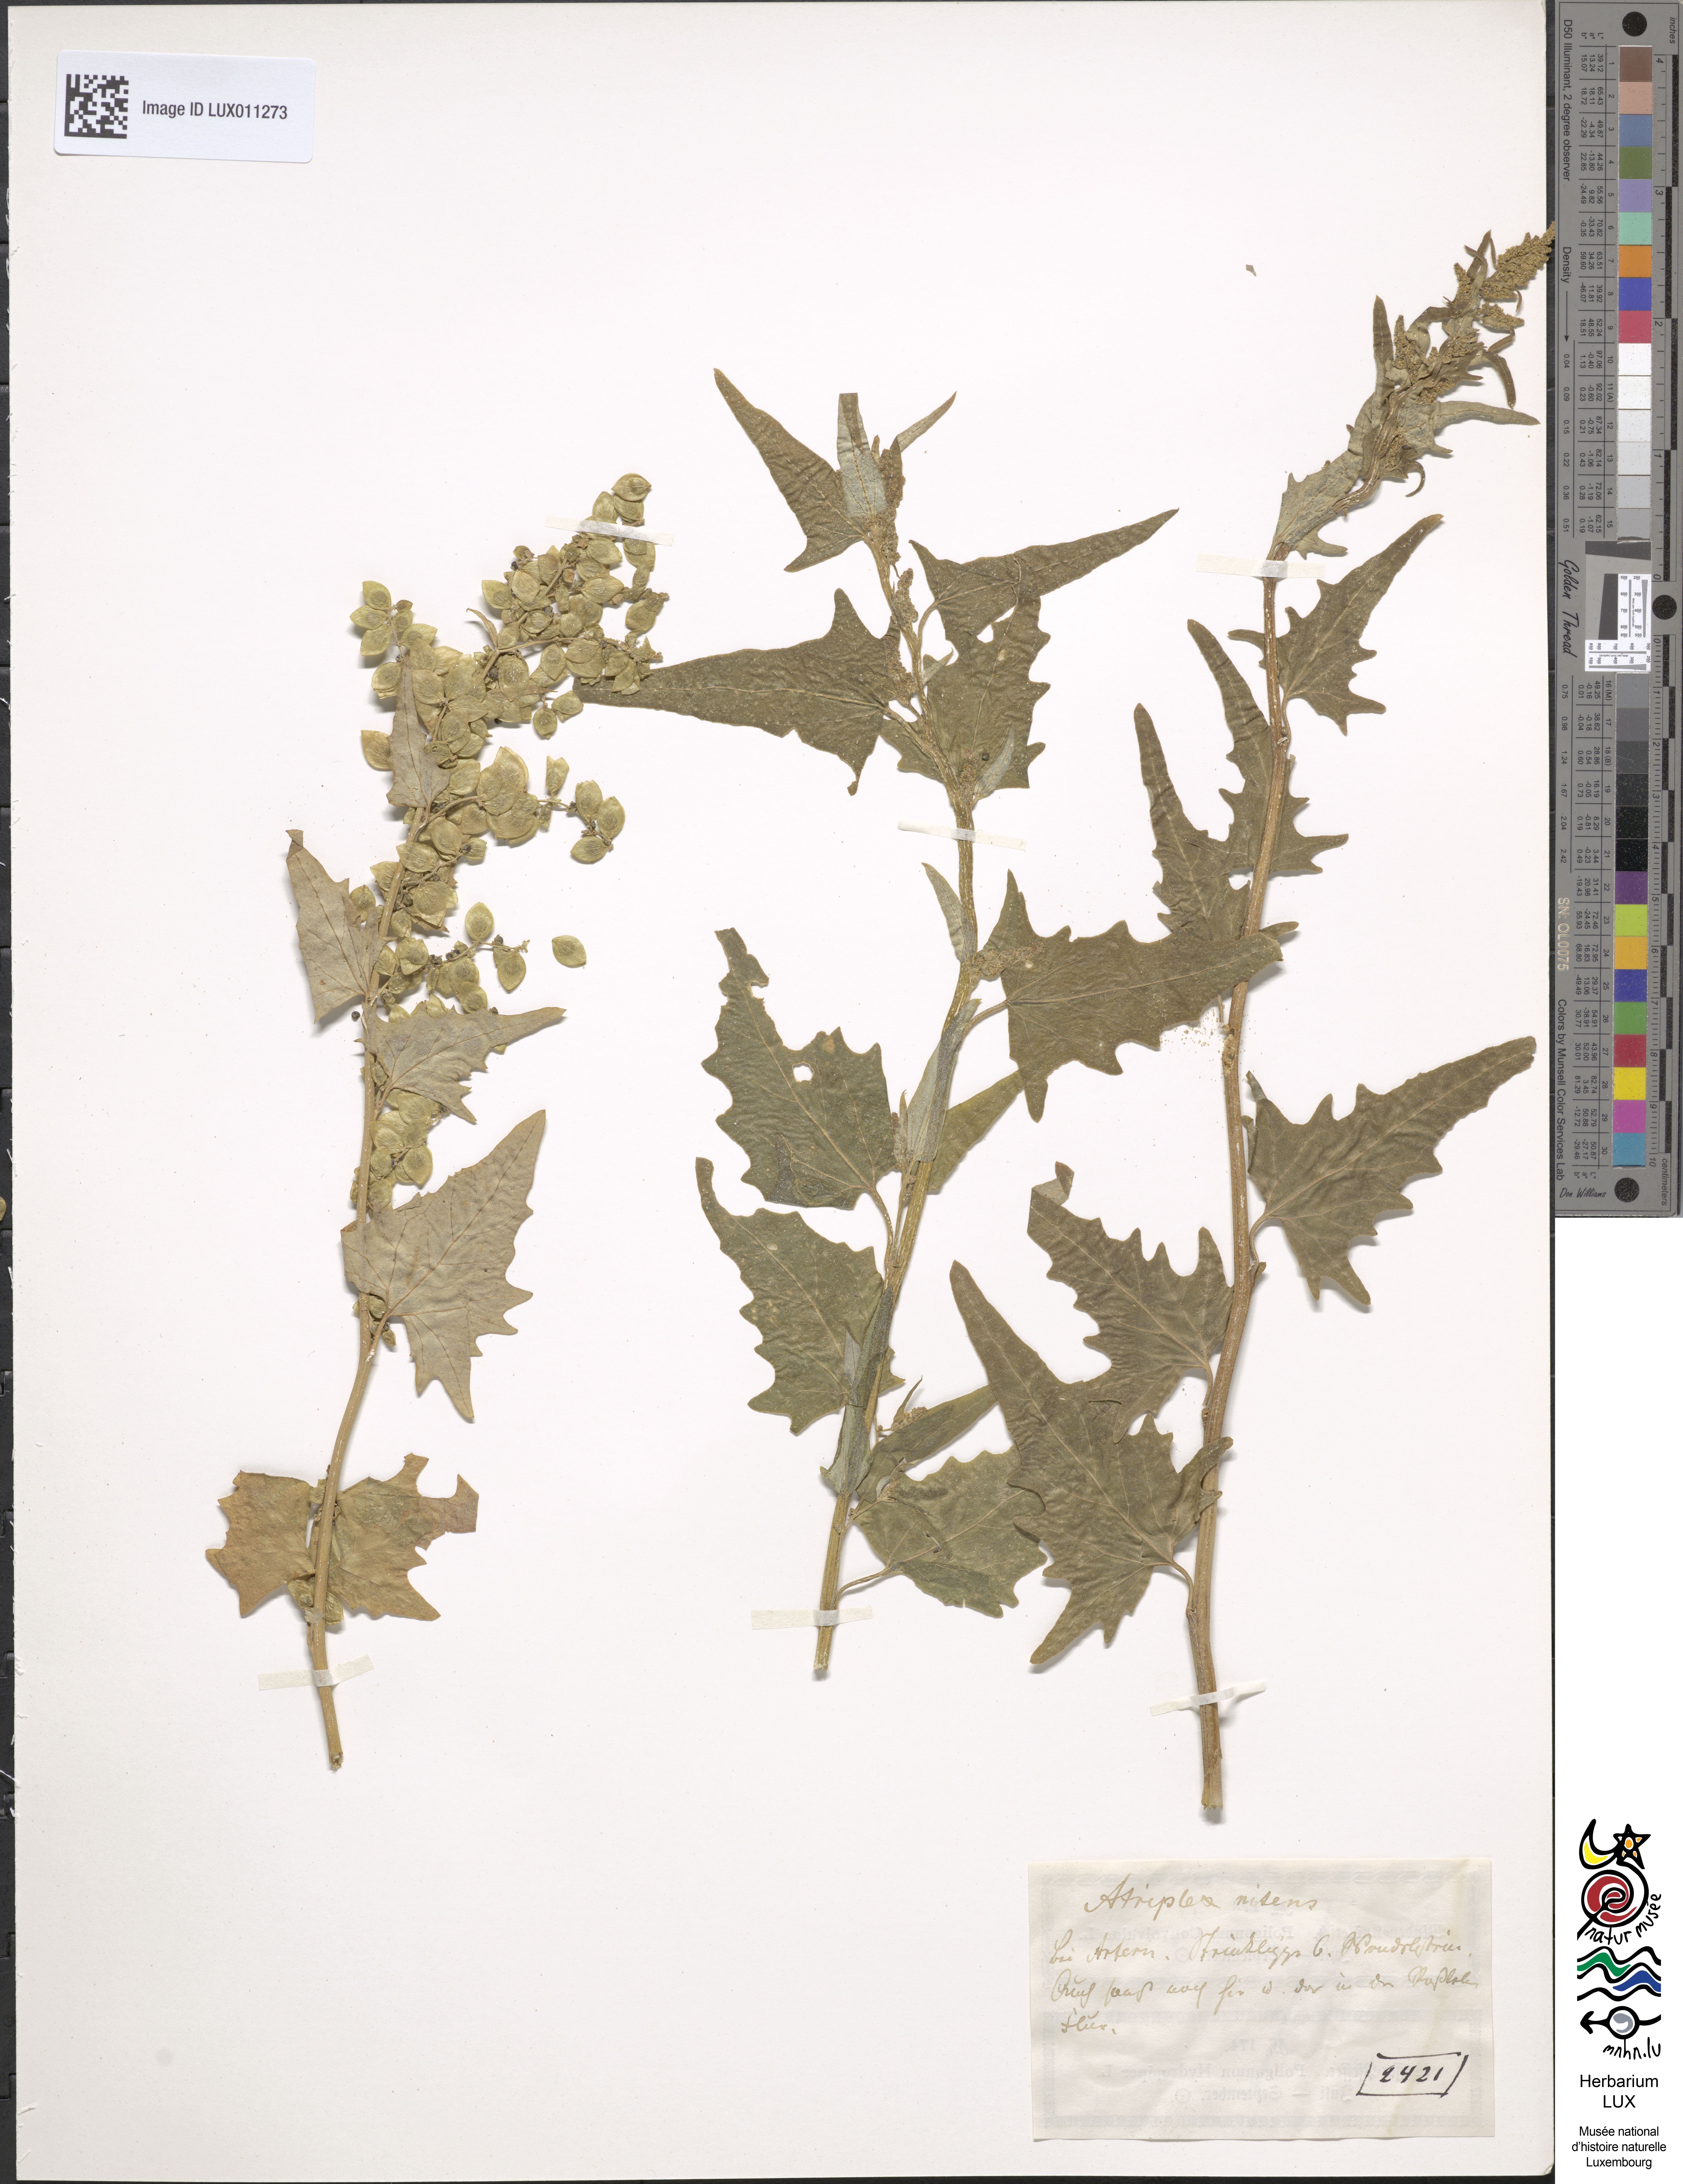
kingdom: Plantae
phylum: Tracheophyta
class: Magnoliopsida
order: Caryophyllales
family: Amaranthaceae
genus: Atriplex
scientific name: Atriplex sagittata
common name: Purple orache
